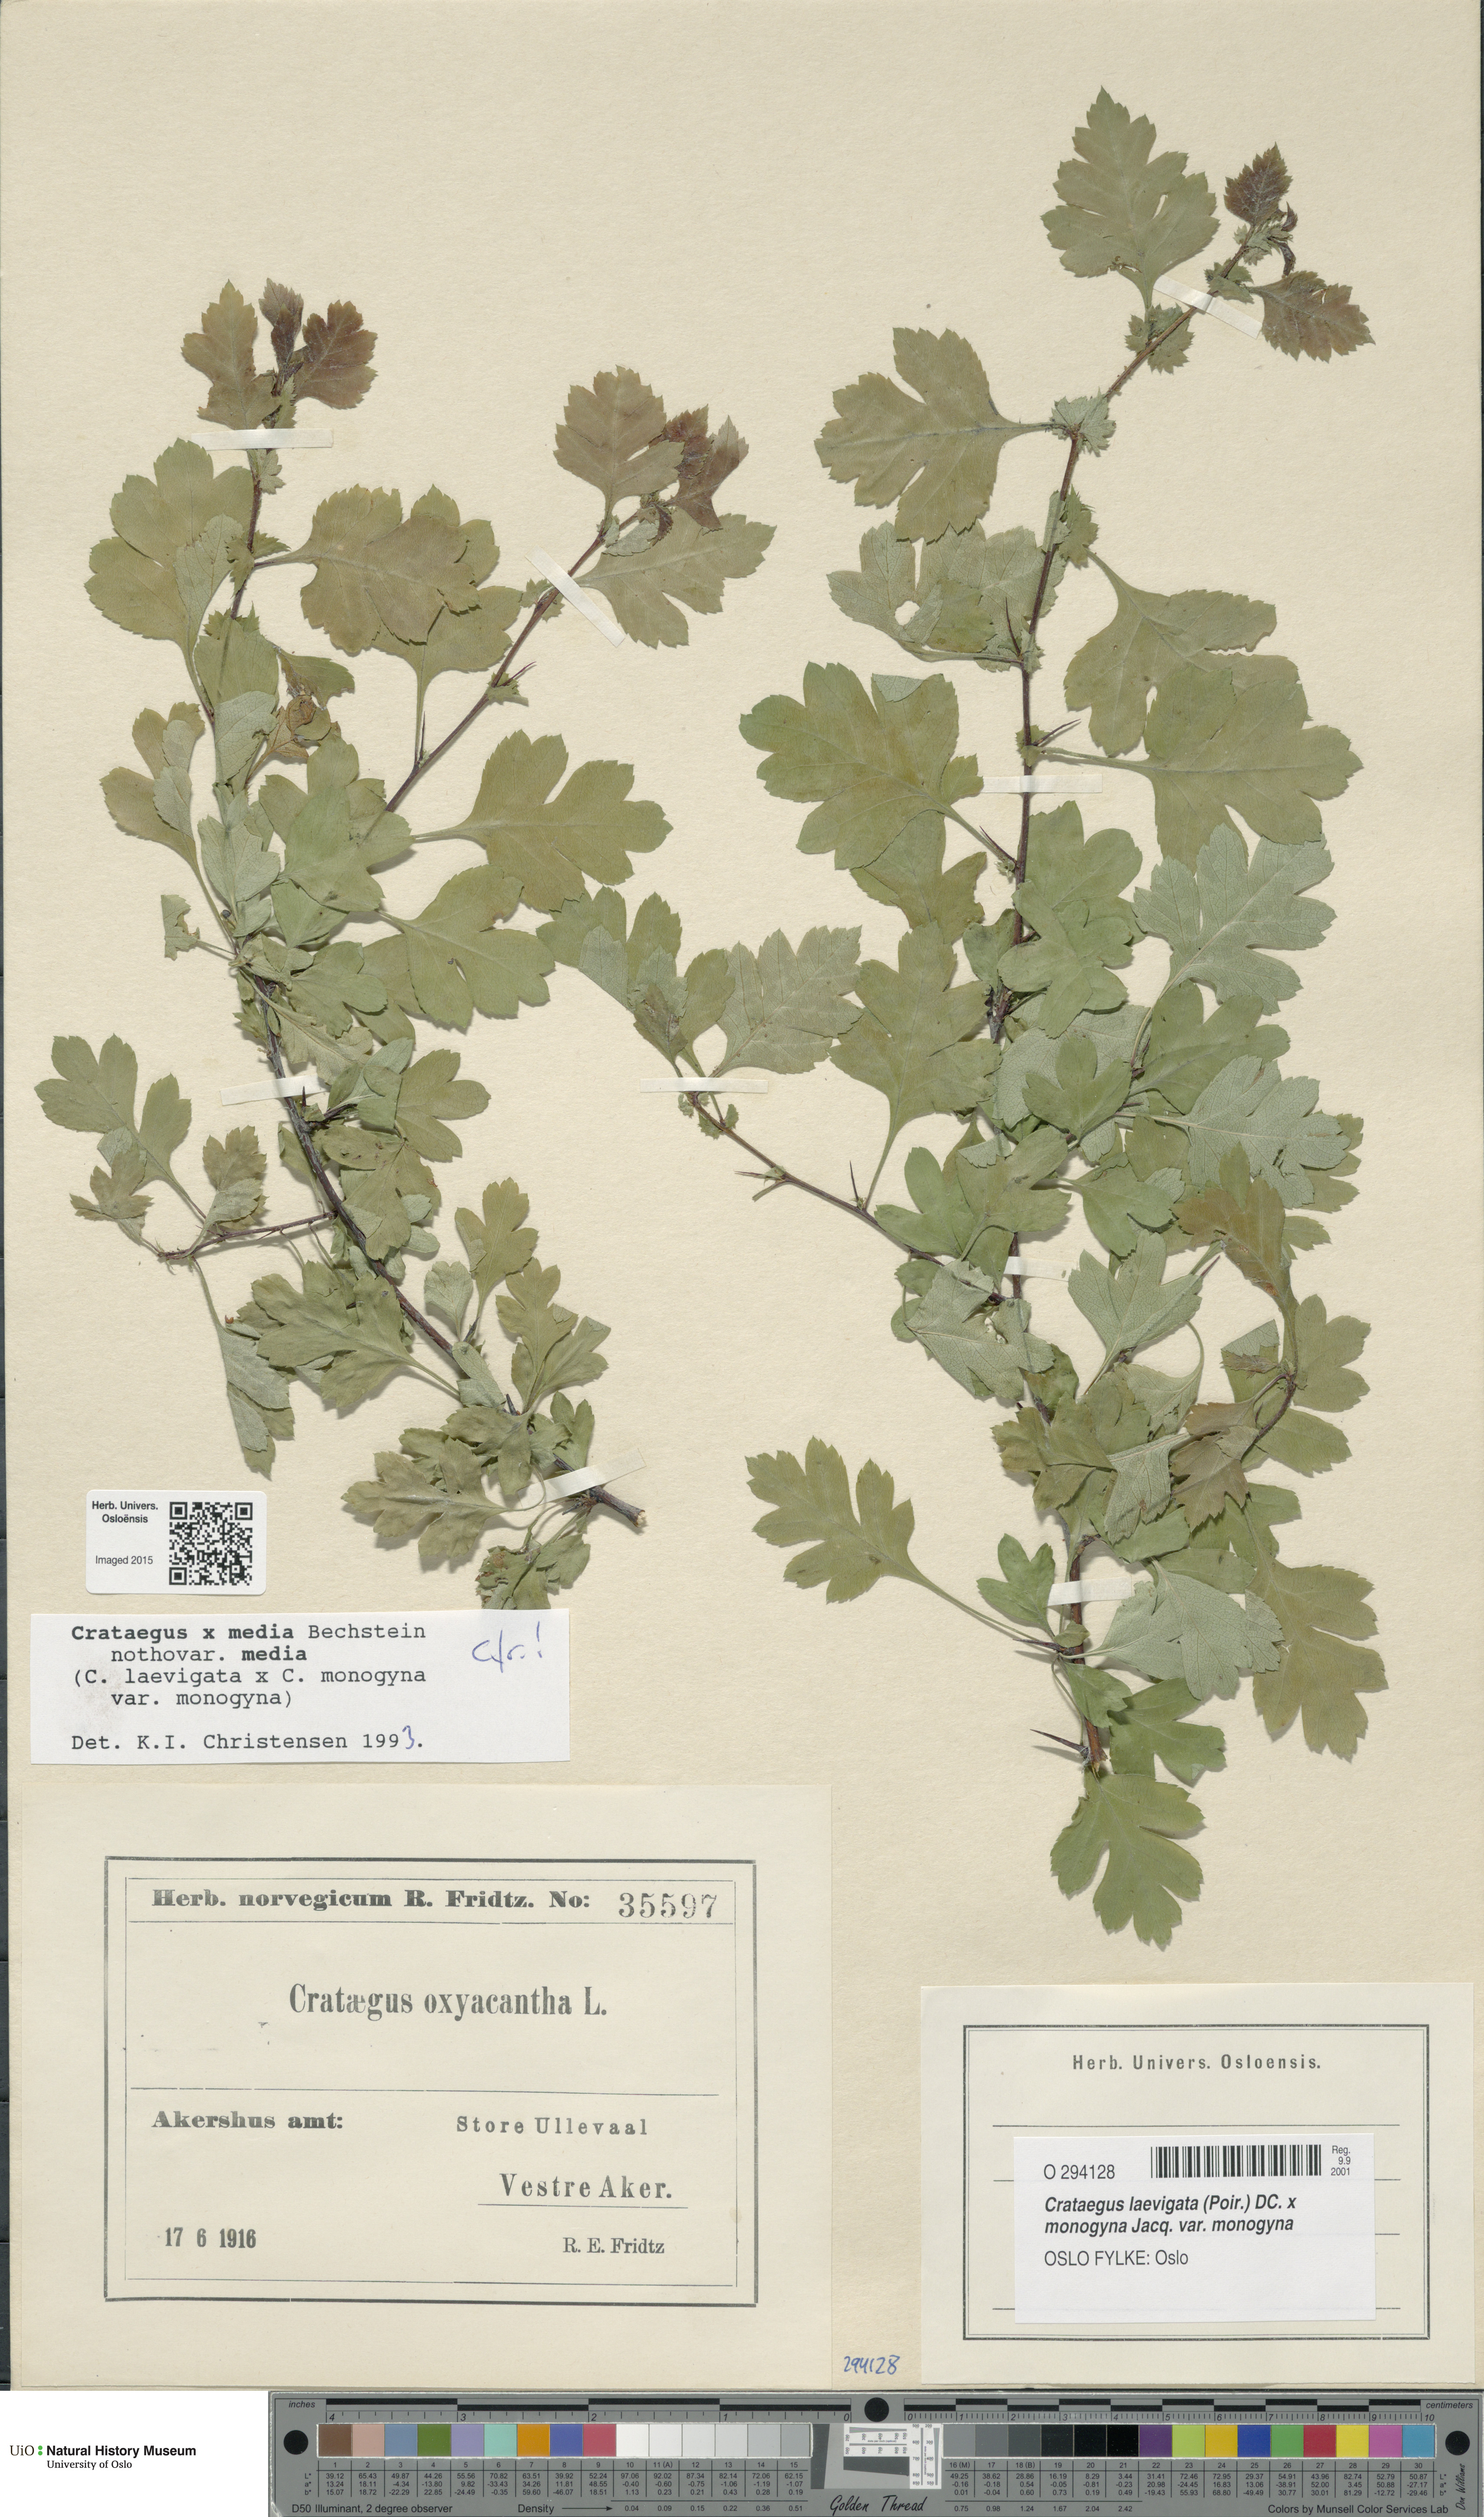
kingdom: Plantae
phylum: Tracheophyta
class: Magnoliopsida
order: Rosales
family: Rosaceae
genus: Crataegus
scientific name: Crataegus
